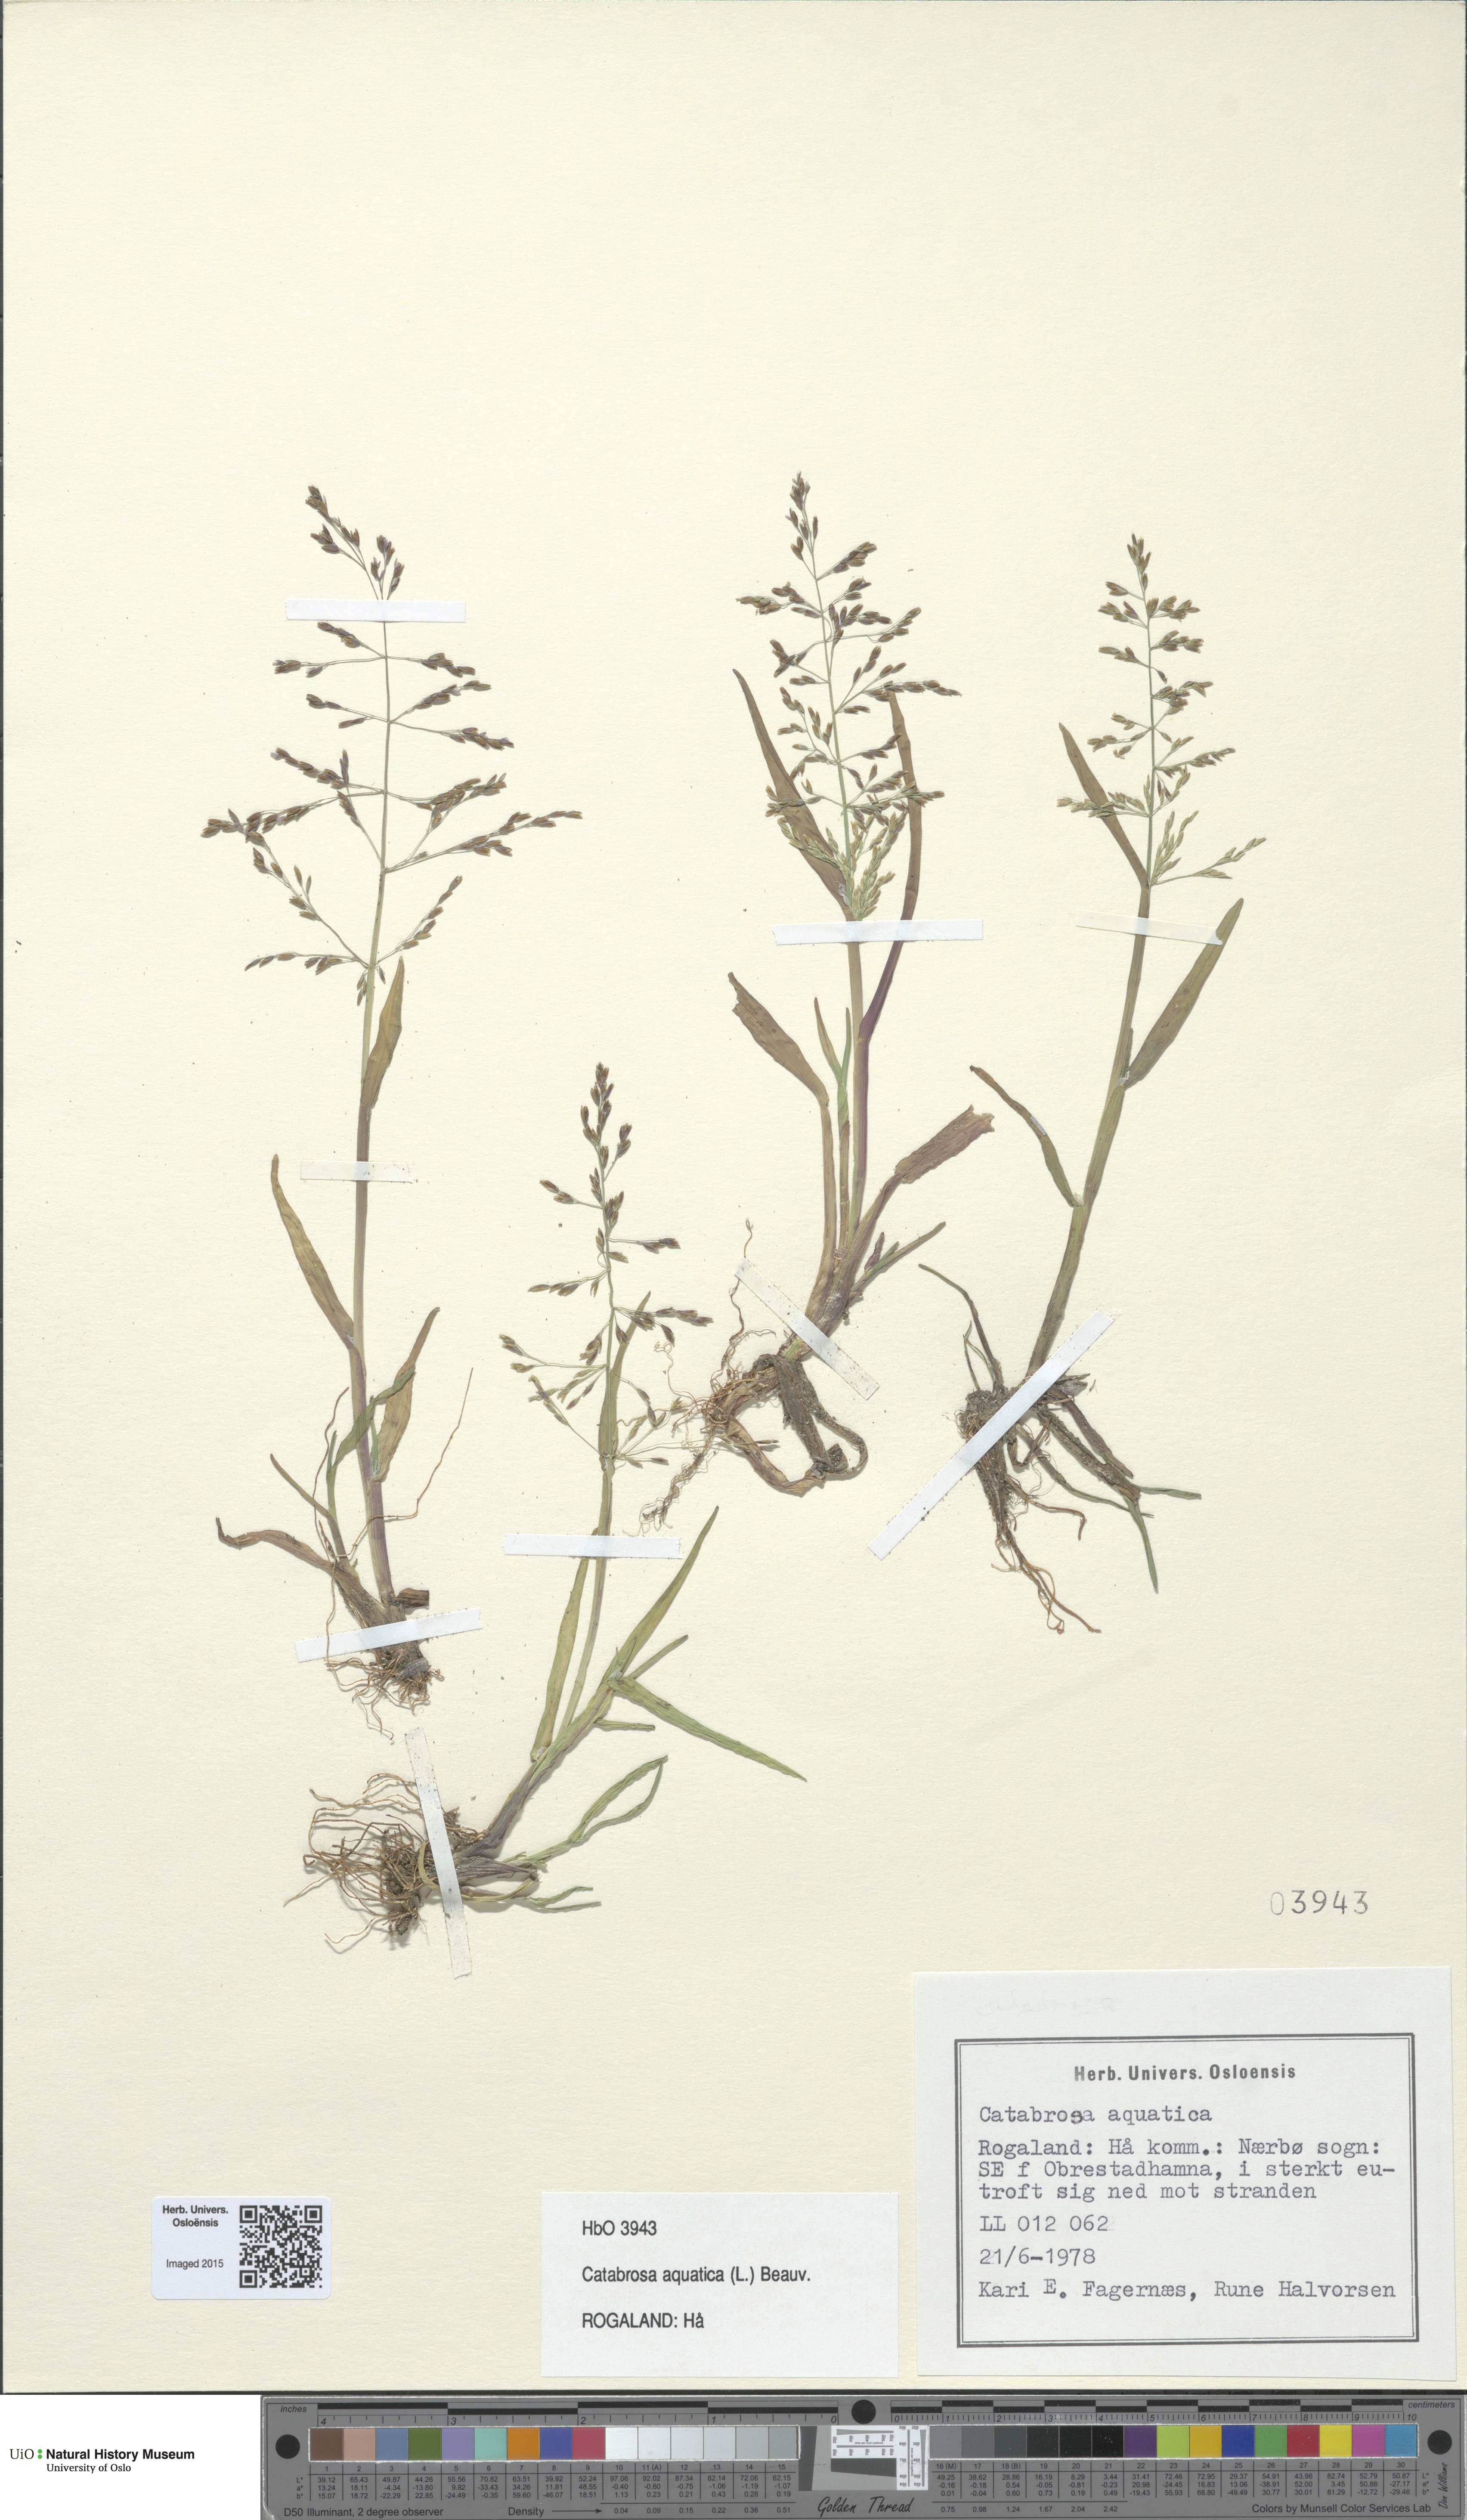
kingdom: Plantae
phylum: Tracheophyta
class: Liliopsida
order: Poales
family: Poaceae
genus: Catabrosa
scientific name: Catabrosa aquatica
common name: Whorl-grass
